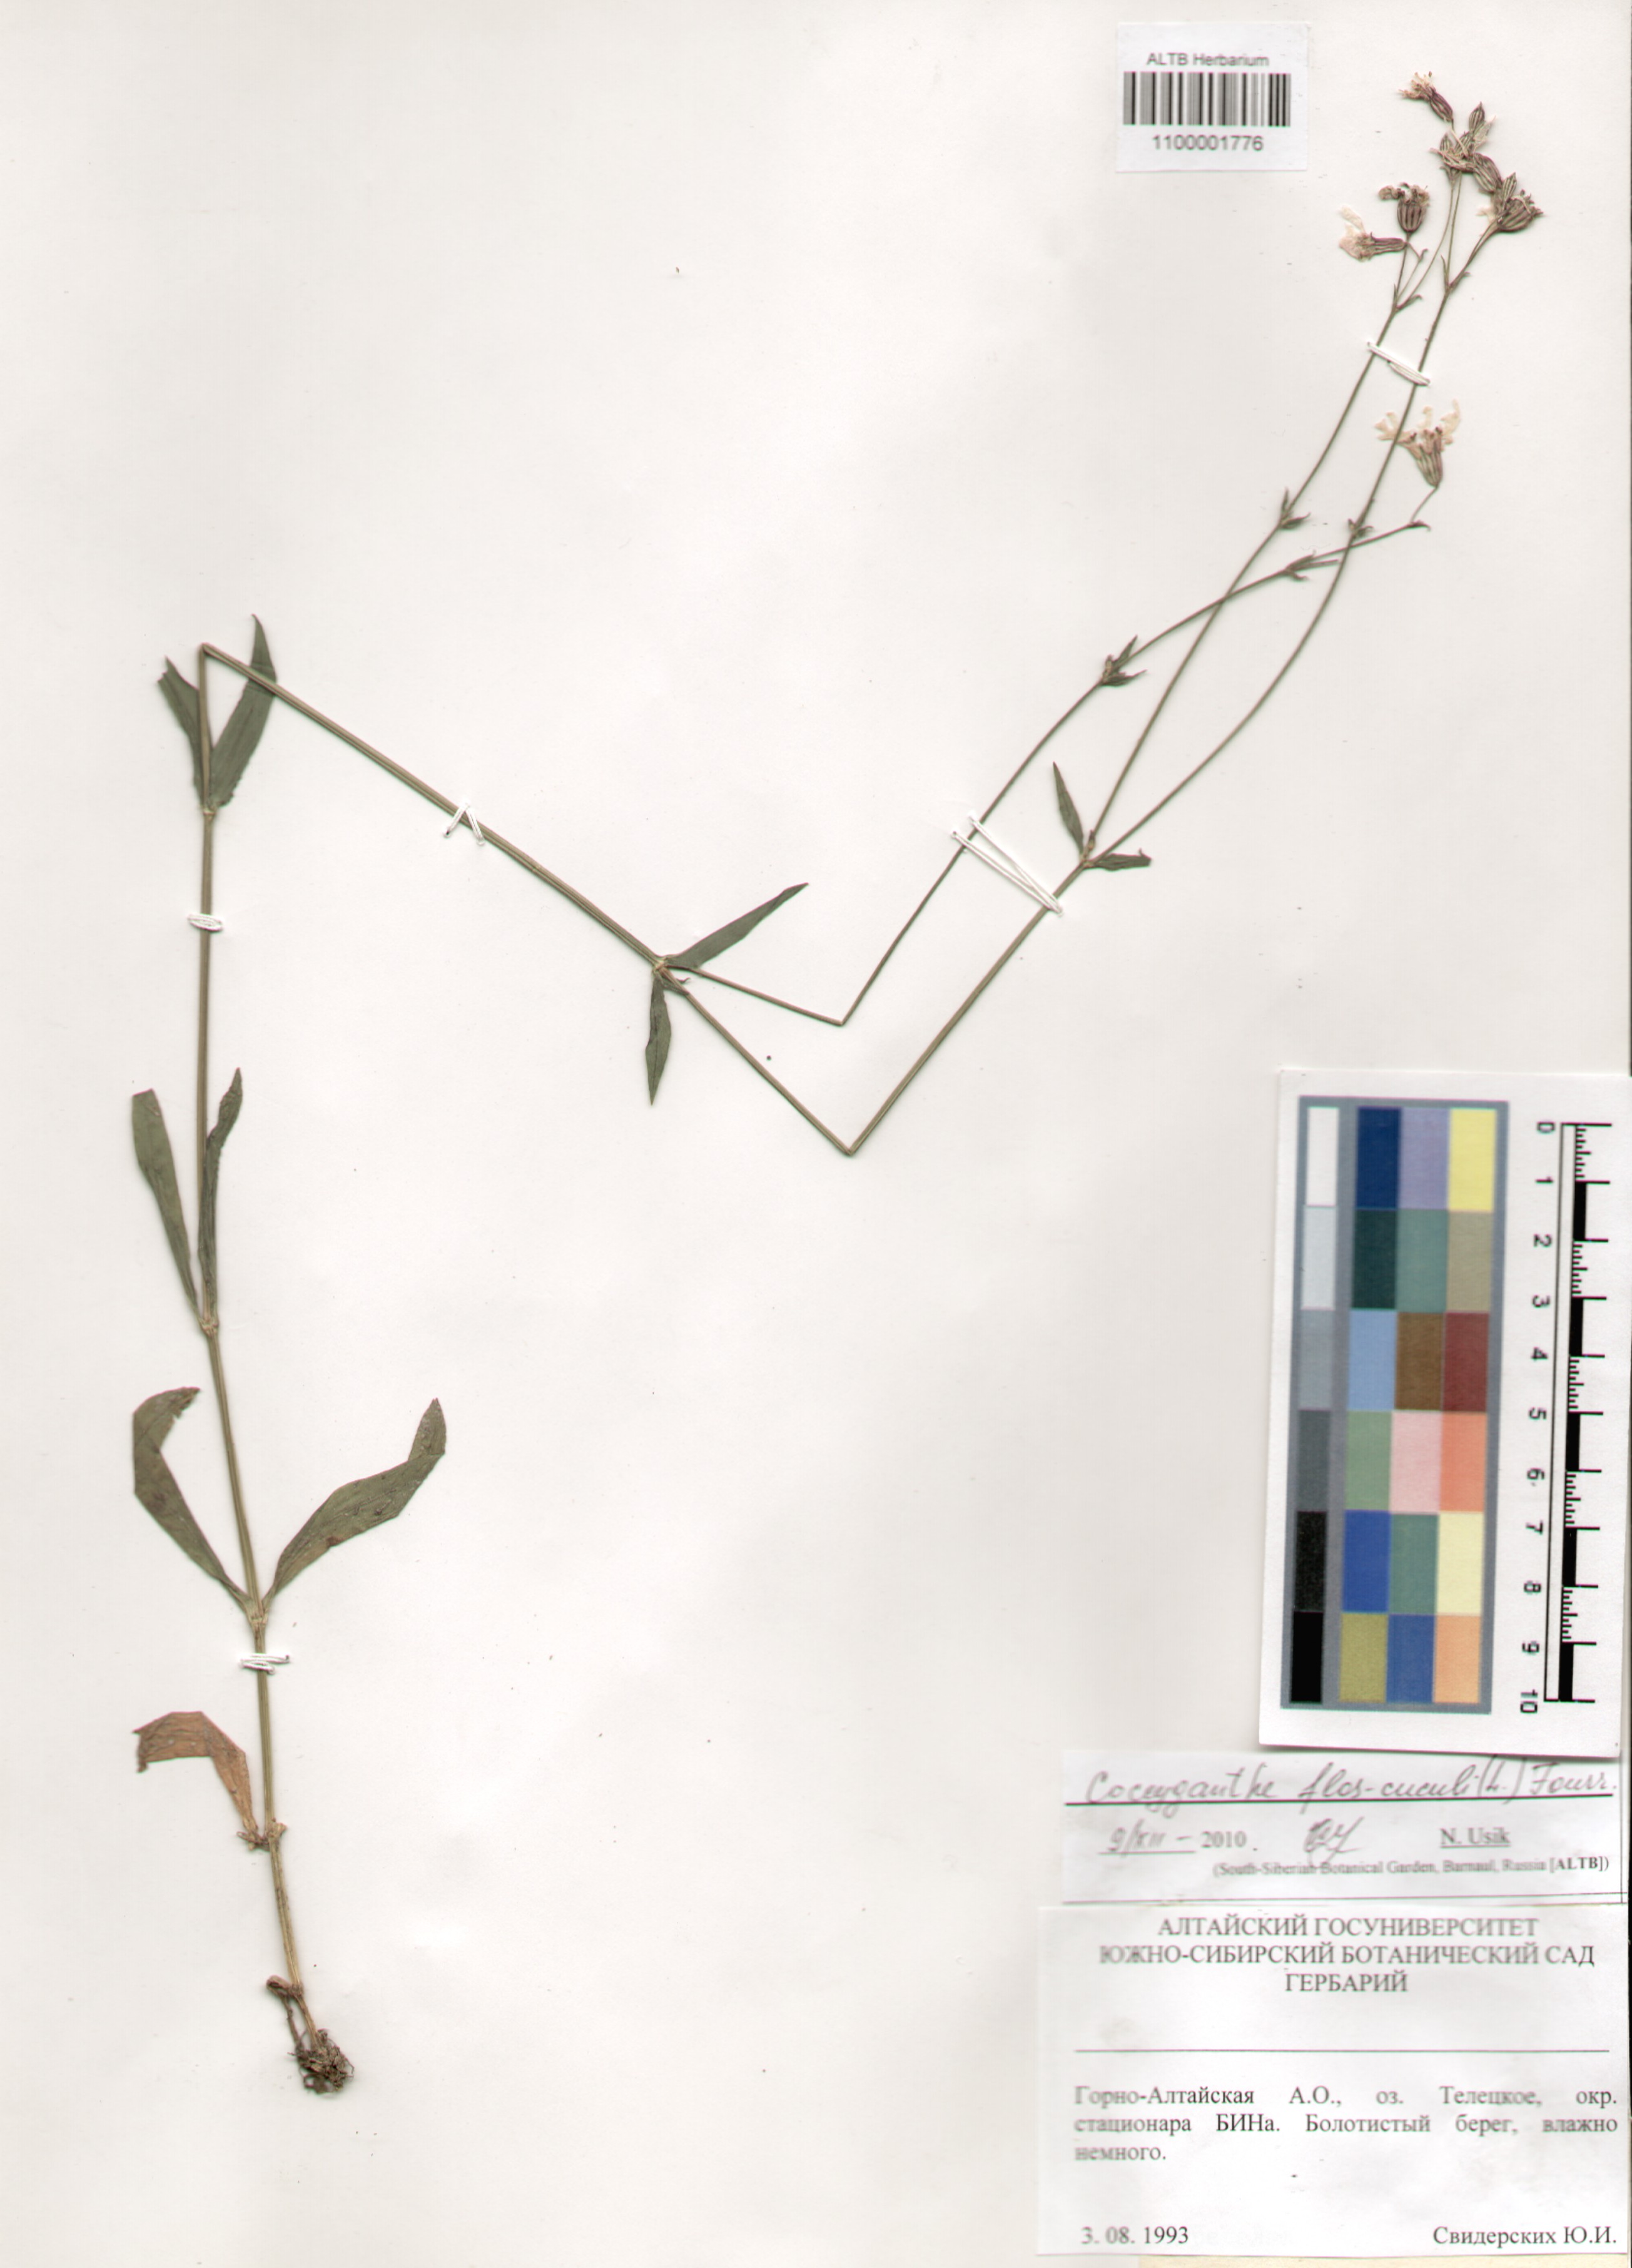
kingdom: Plantae
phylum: Tracheophyta
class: Magnoliopsida
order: Caryophyllales
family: Caryophyllaceae
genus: Silene
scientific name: Silene flos-cuculi
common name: Ragged-robin
